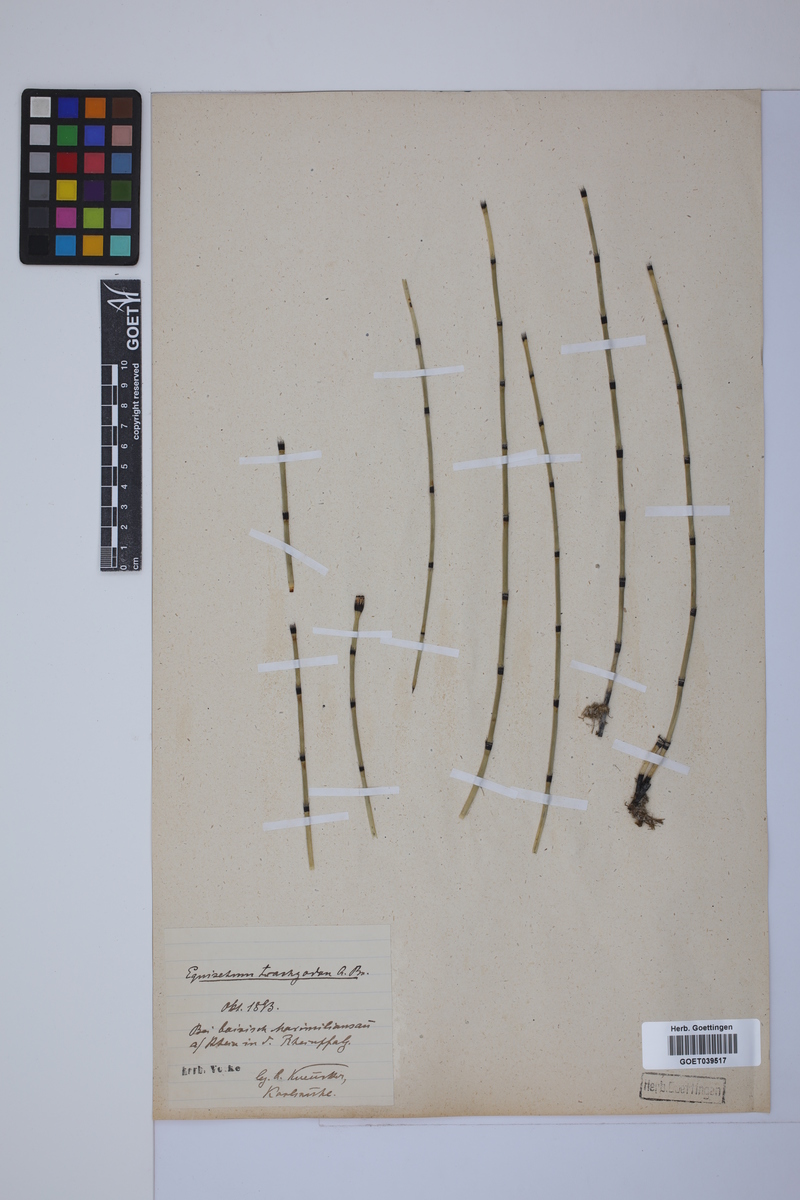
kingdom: Plantae
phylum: Tracheophyta
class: Polypodiopsida
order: Equisetales
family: Equisetaceae
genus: Equisetum
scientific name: Equisetum trachyodon
